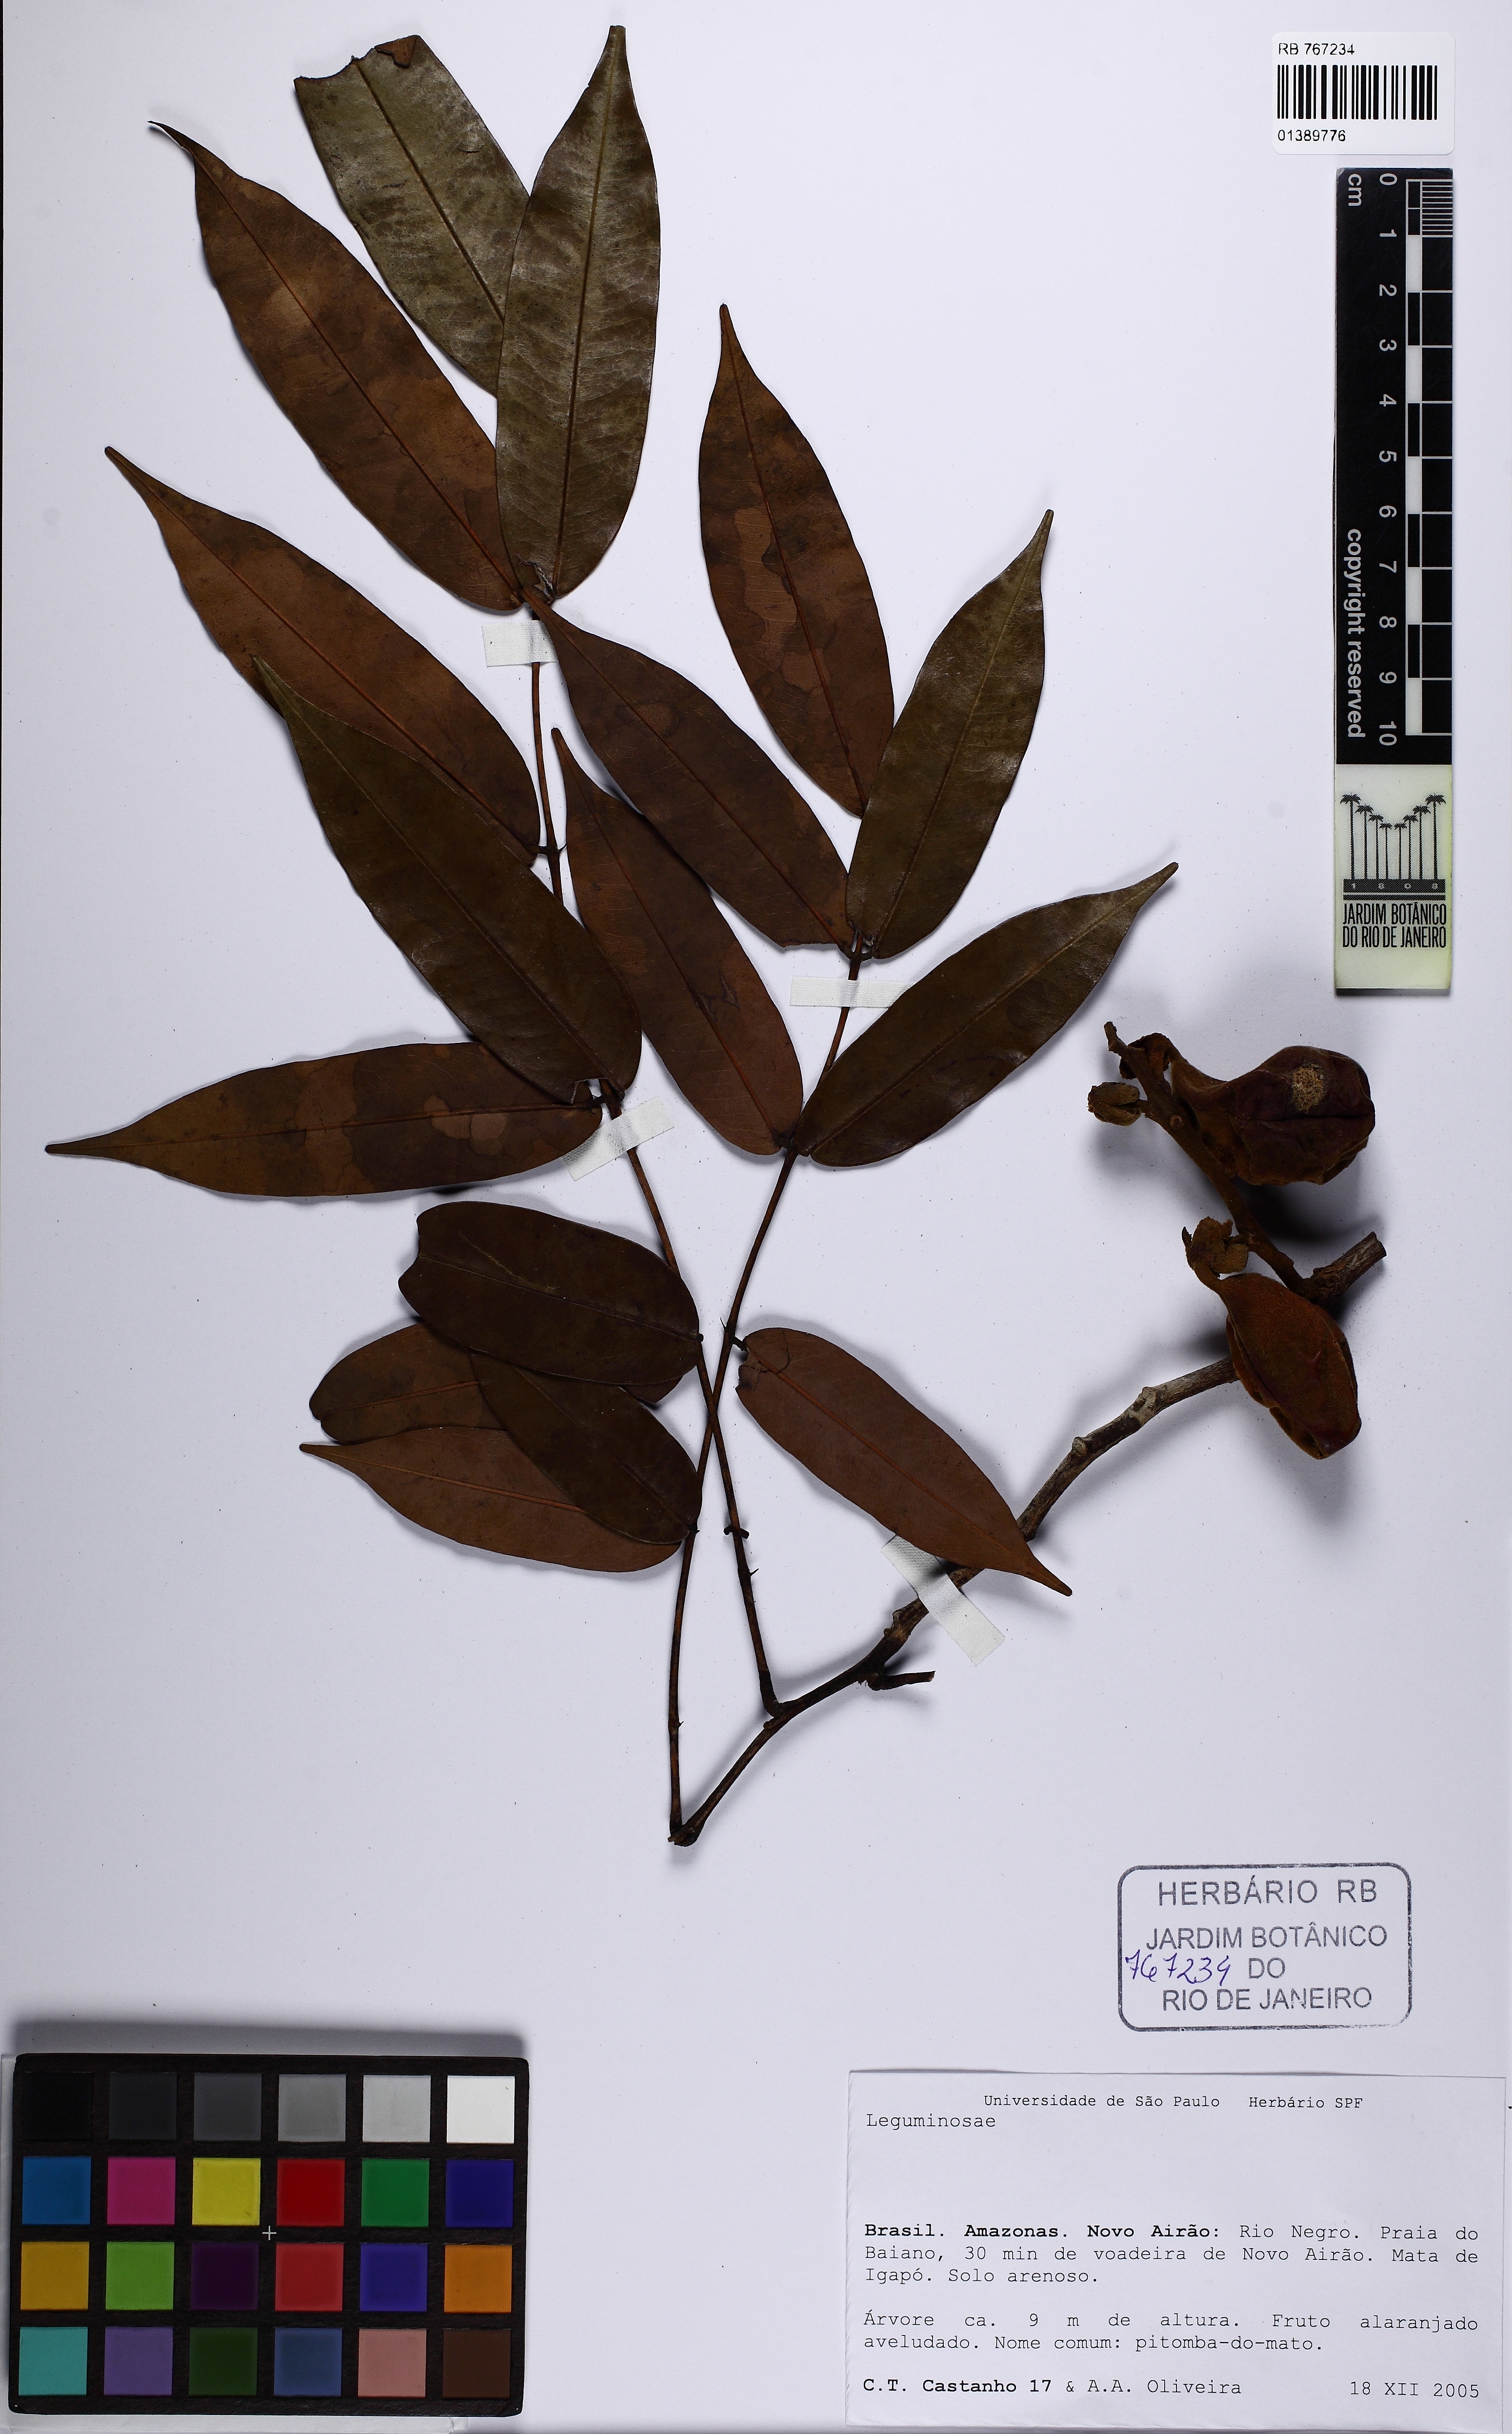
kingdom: Plantae
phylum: Tracheophyta
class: Magnoliopsida
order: Fabales
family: Fabaceae
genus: Swartzia
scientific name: Swartzia sericea
